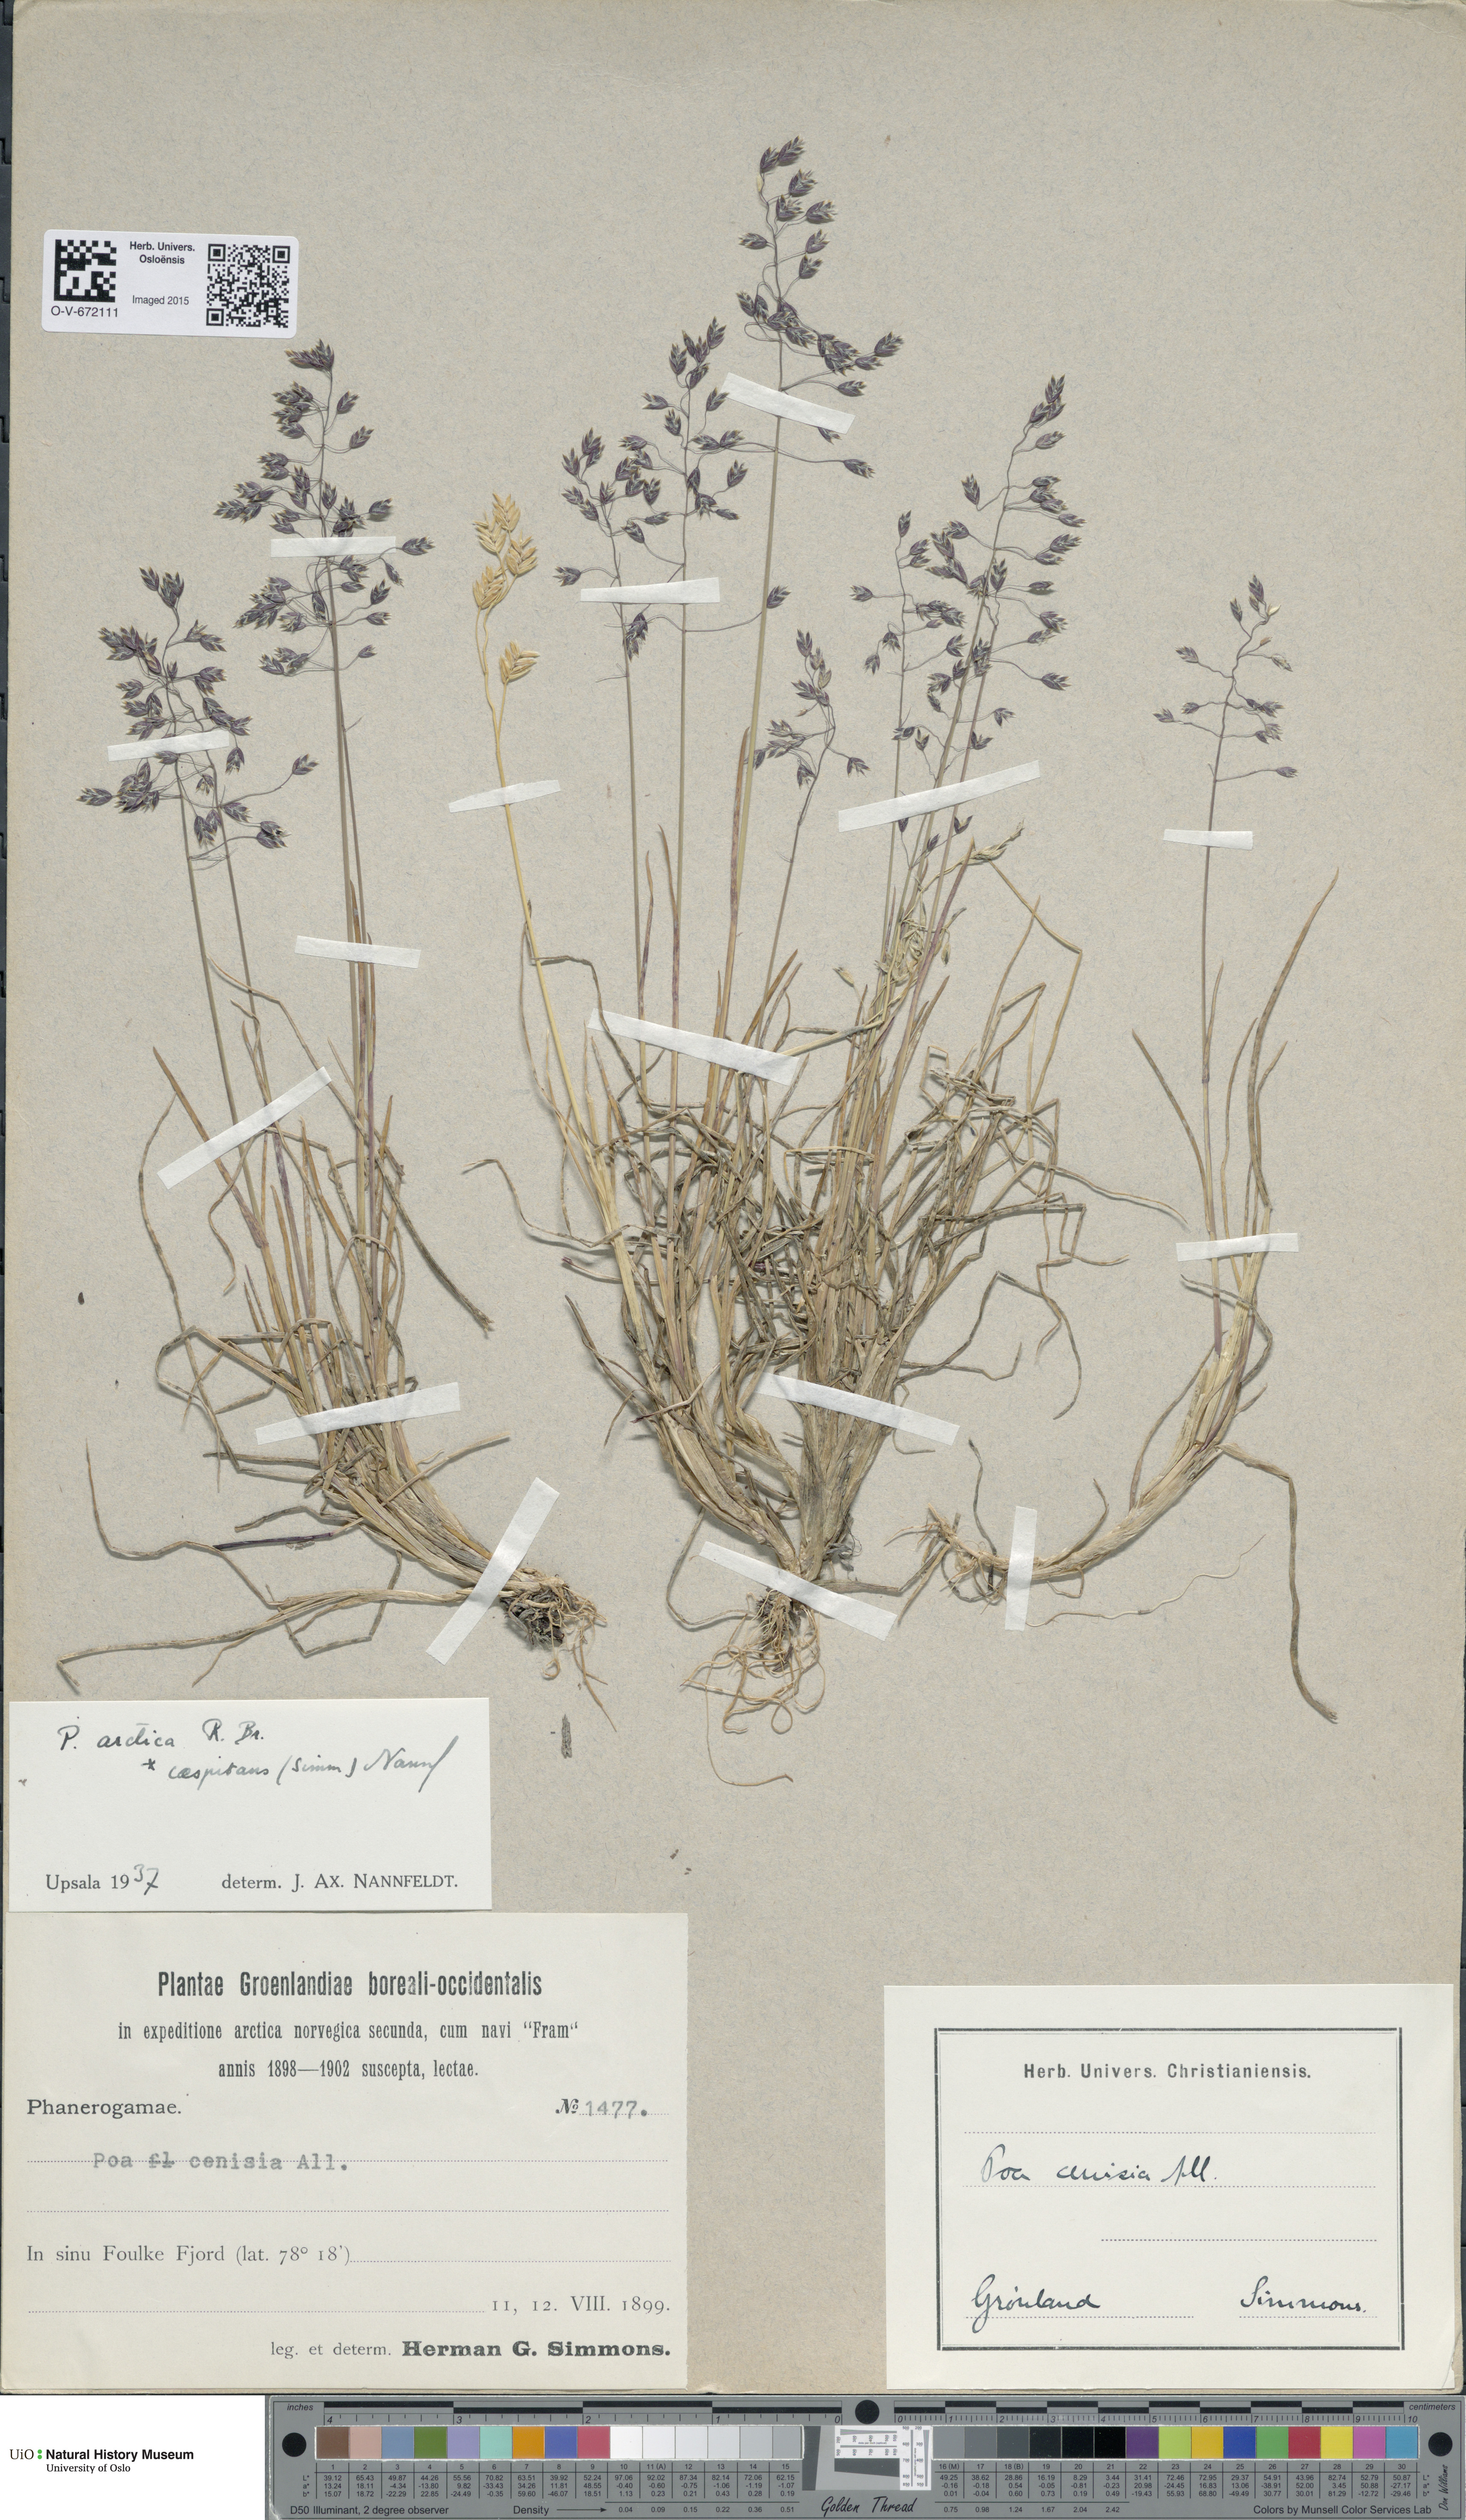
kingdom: Plantae
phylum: Tracheophyta
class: Liliopsida
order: Poales
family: Poaceae
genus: Poa
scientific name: Poa arctica
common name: Arctic bluegrass
